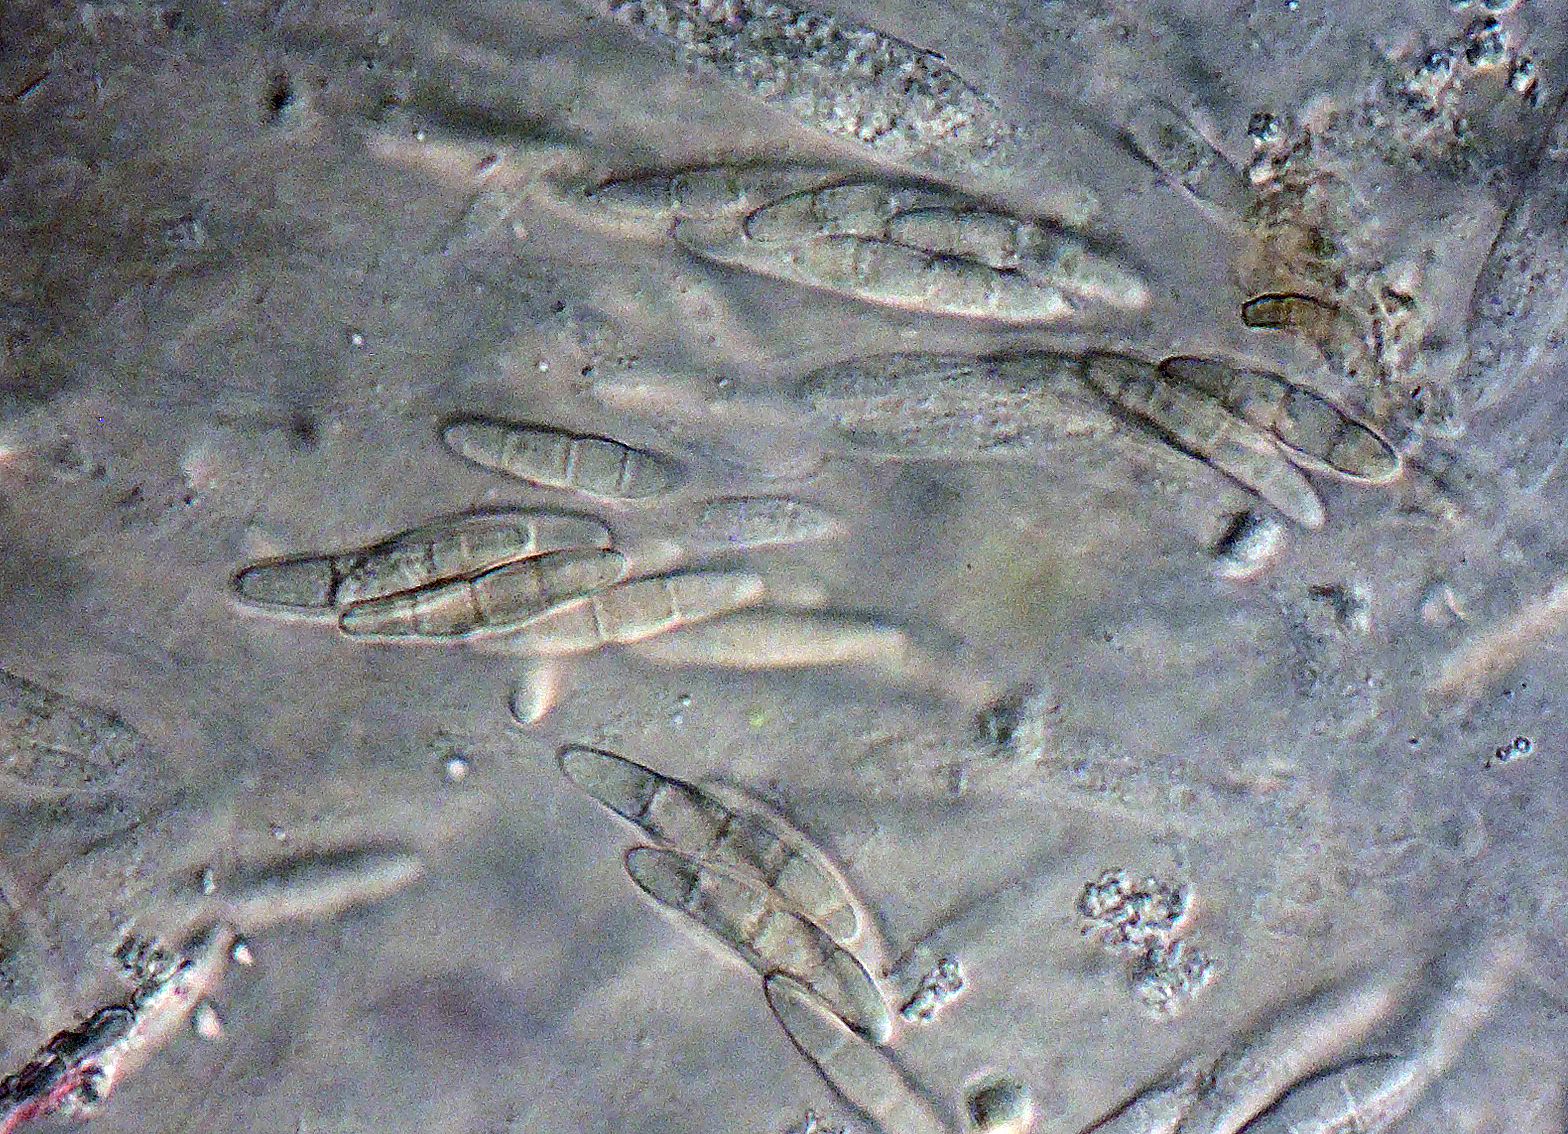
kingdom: Fungi
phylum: Ascomycota
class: Sordariomycetes
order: Hypocreales
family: Nectriaceae
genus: Gibberella
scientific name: Gibberella
